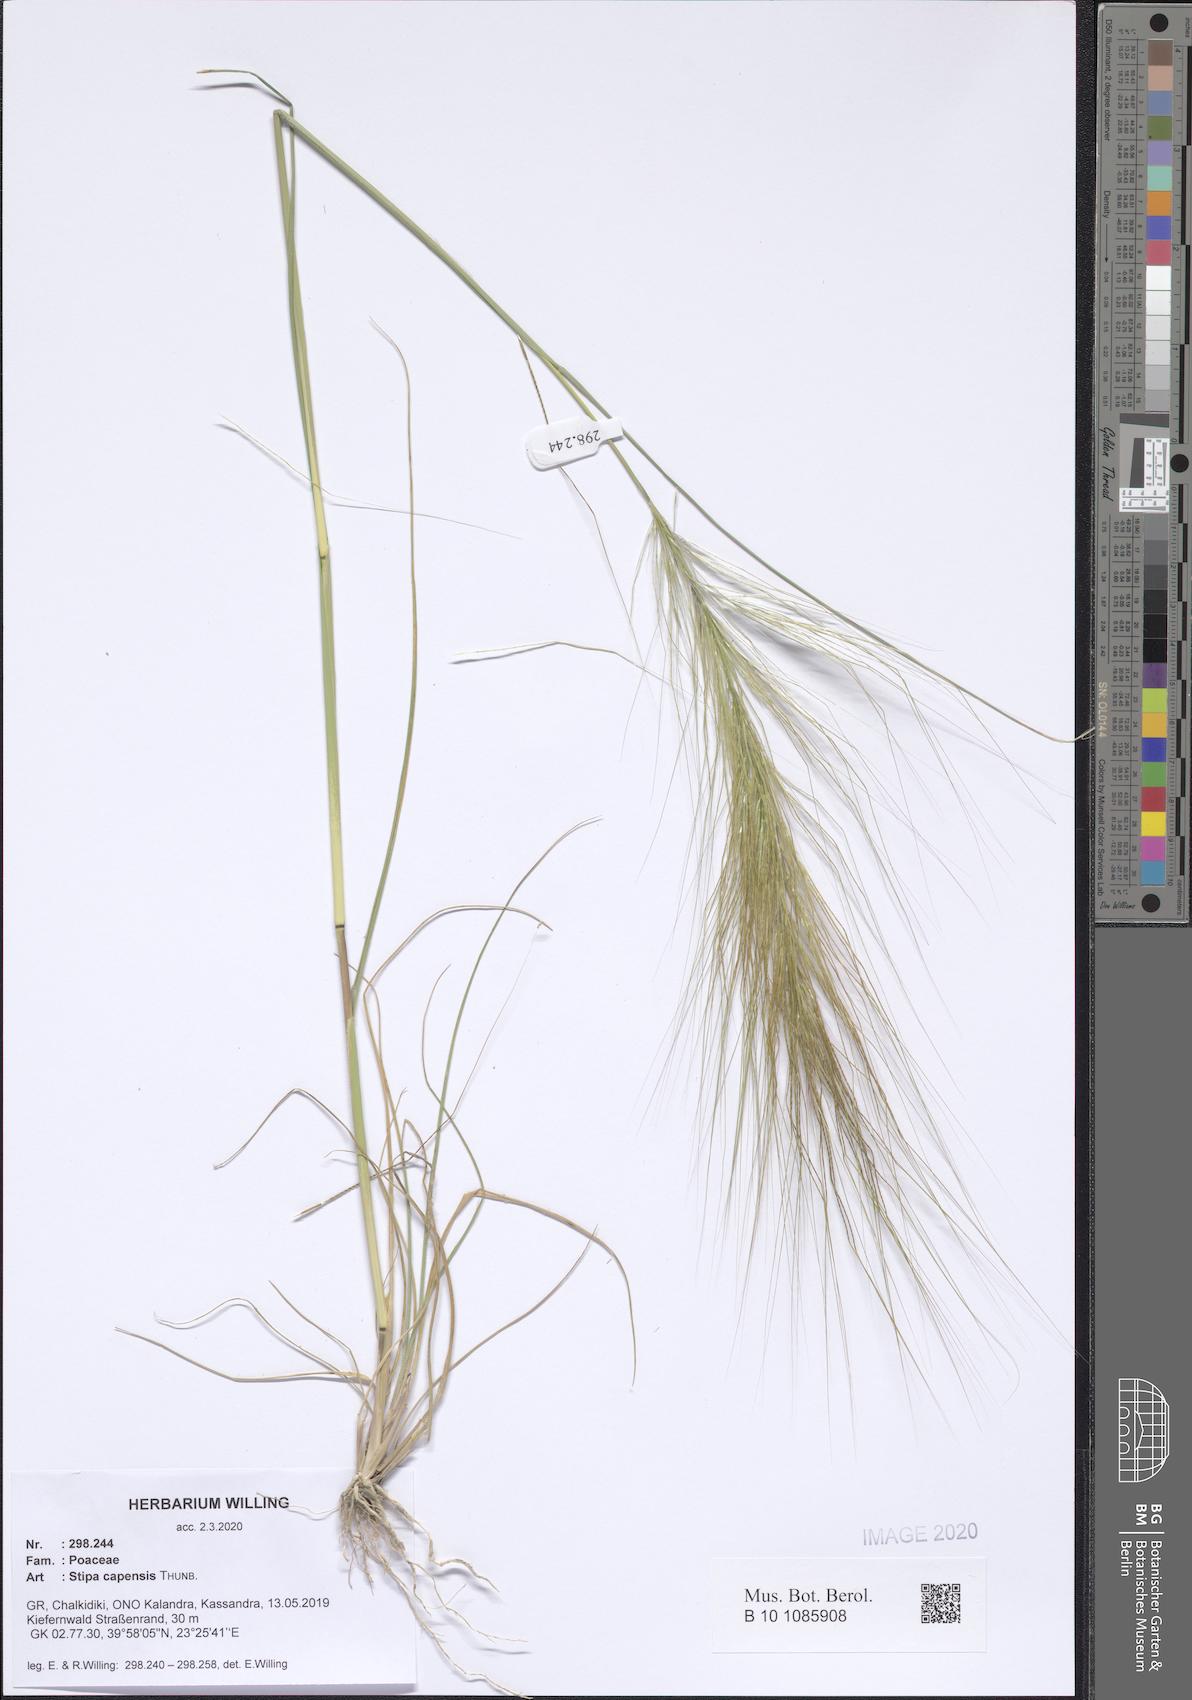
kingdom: Plantae
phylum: Tracheophyta
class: Liliopsida
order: Poales
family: Poaceae
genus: Stipellula
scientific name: Stipellula capensis
